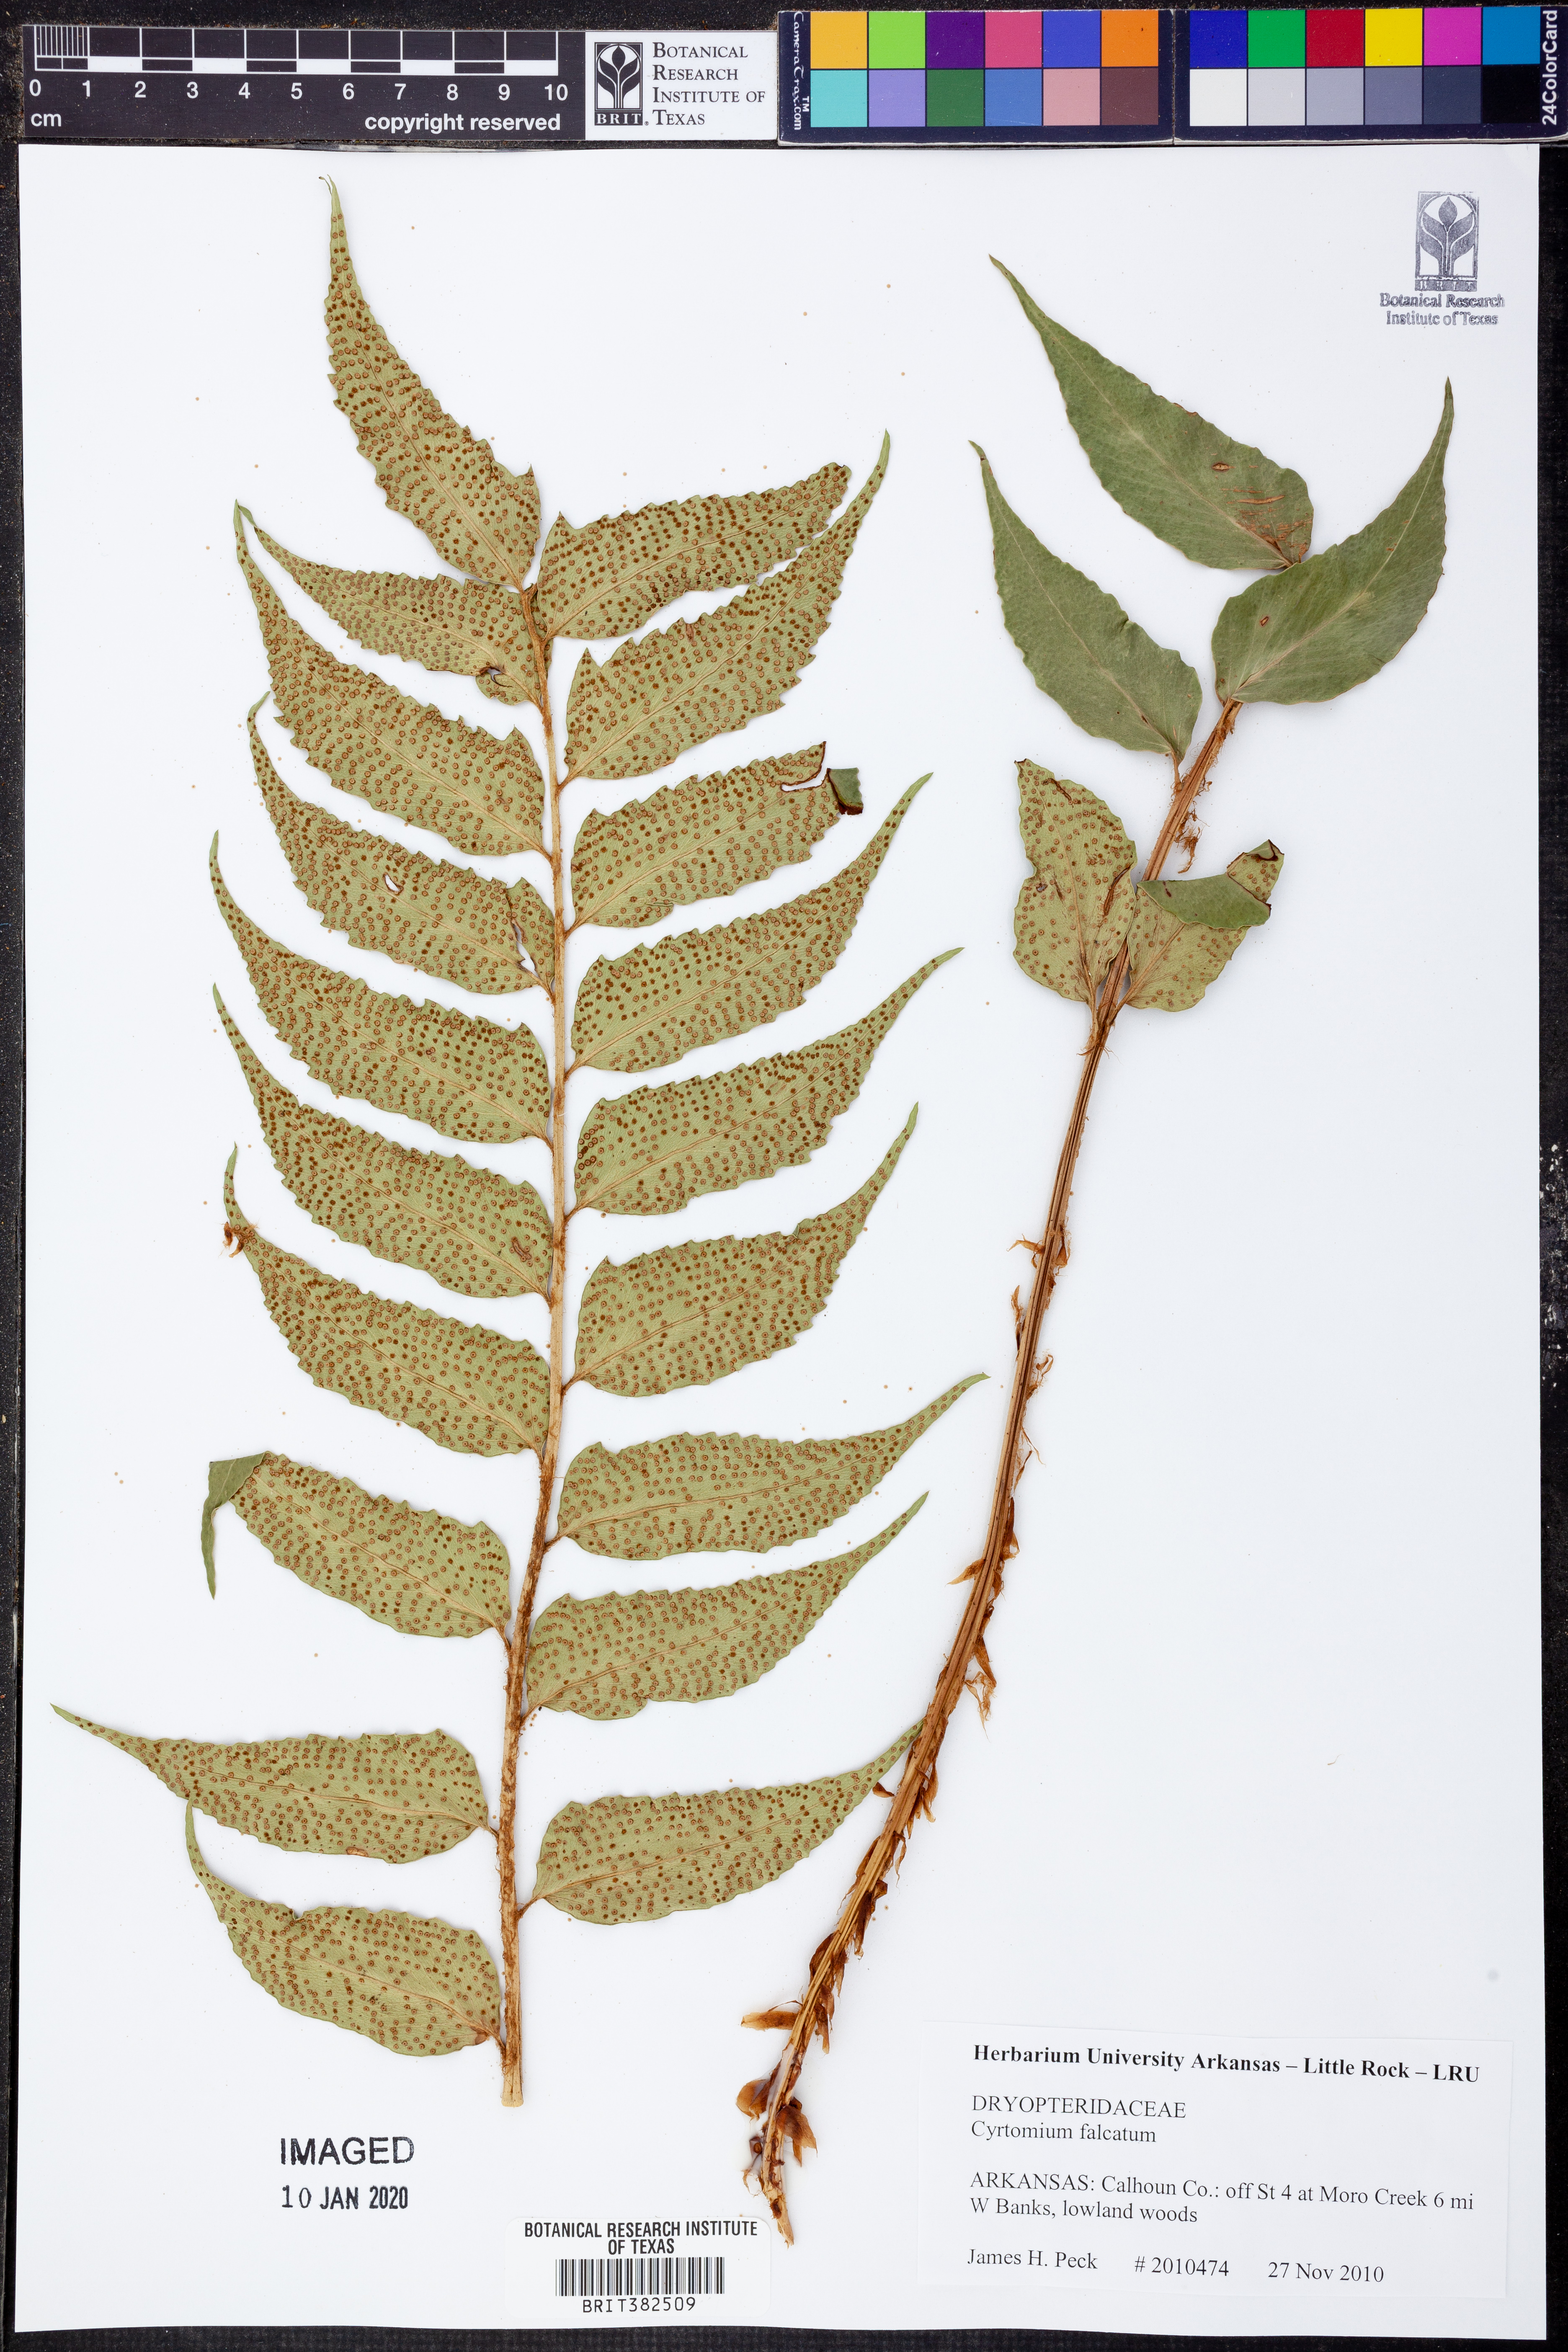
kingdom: Plantae
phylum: Tracheophyta
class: Polypodiopsida
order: Polypodiales
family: Dryopteridaceae
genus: Cyrtomium
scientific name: Cyrtomium falcatum
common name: House holly-fern
